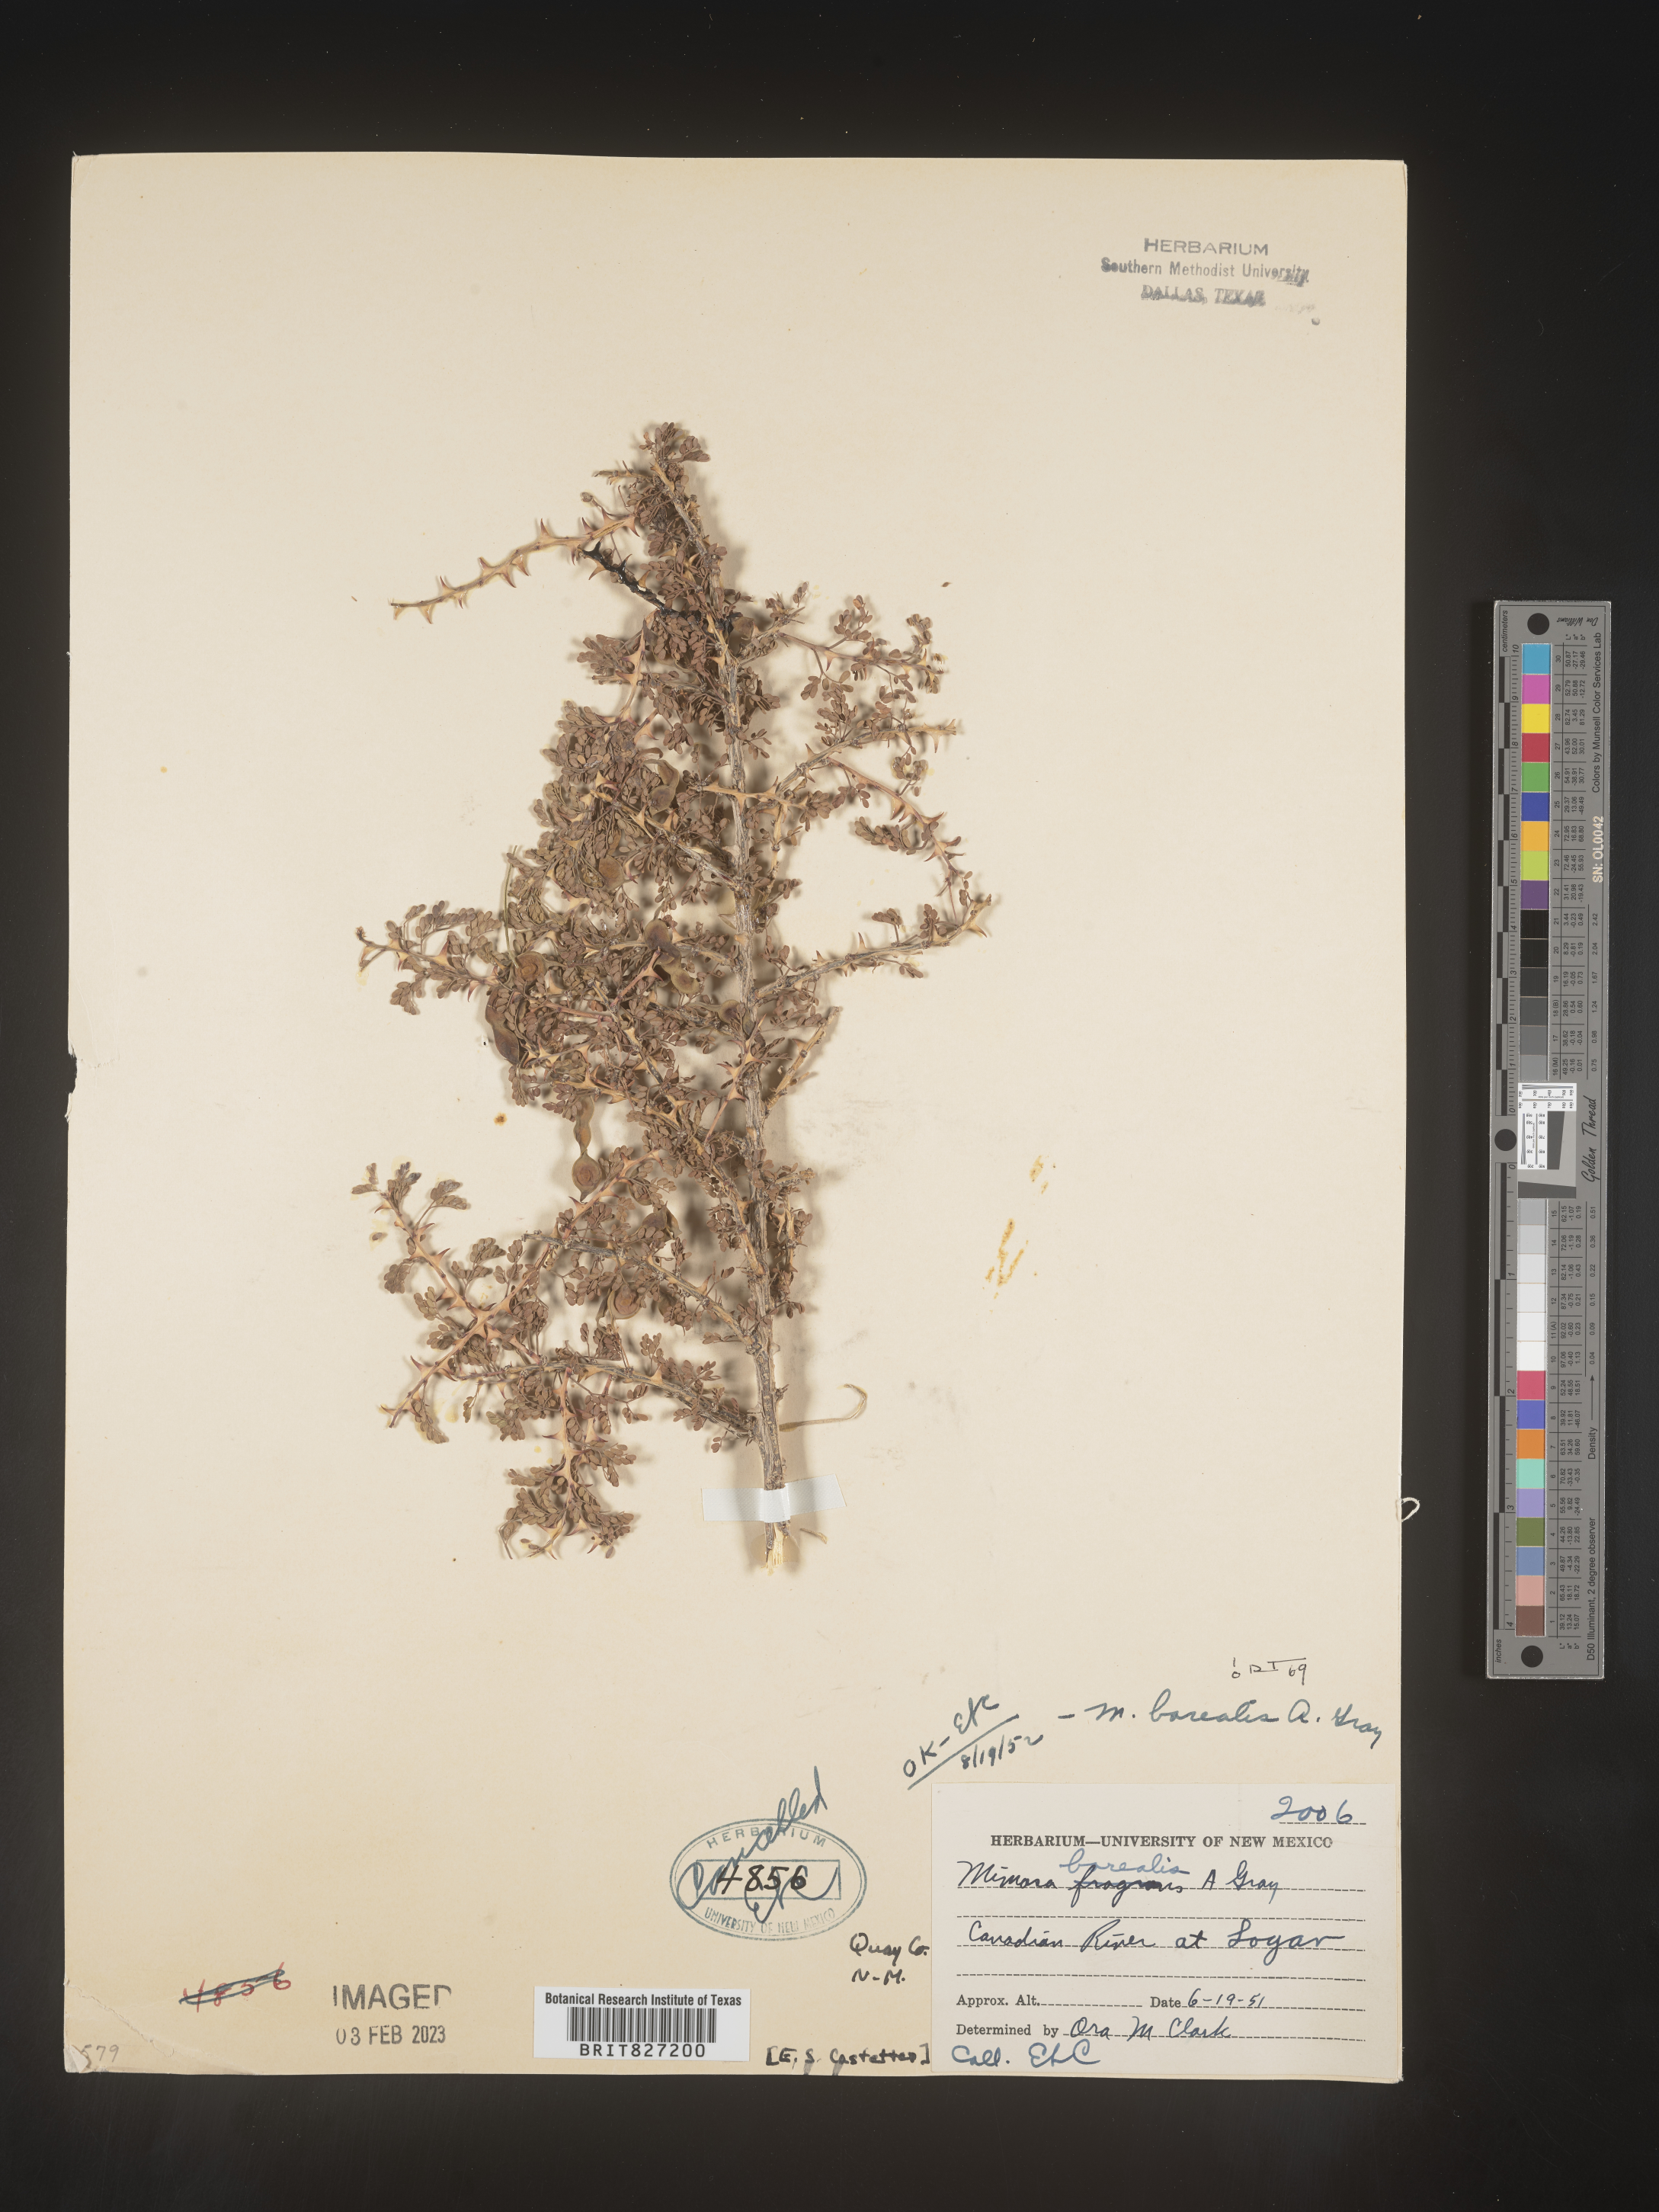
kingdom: Plantae
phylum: Tracheophyta
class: Magnoliopsida
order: Fabales
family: Fabaceae
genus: Mimosa
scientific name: Mimosa borealis
